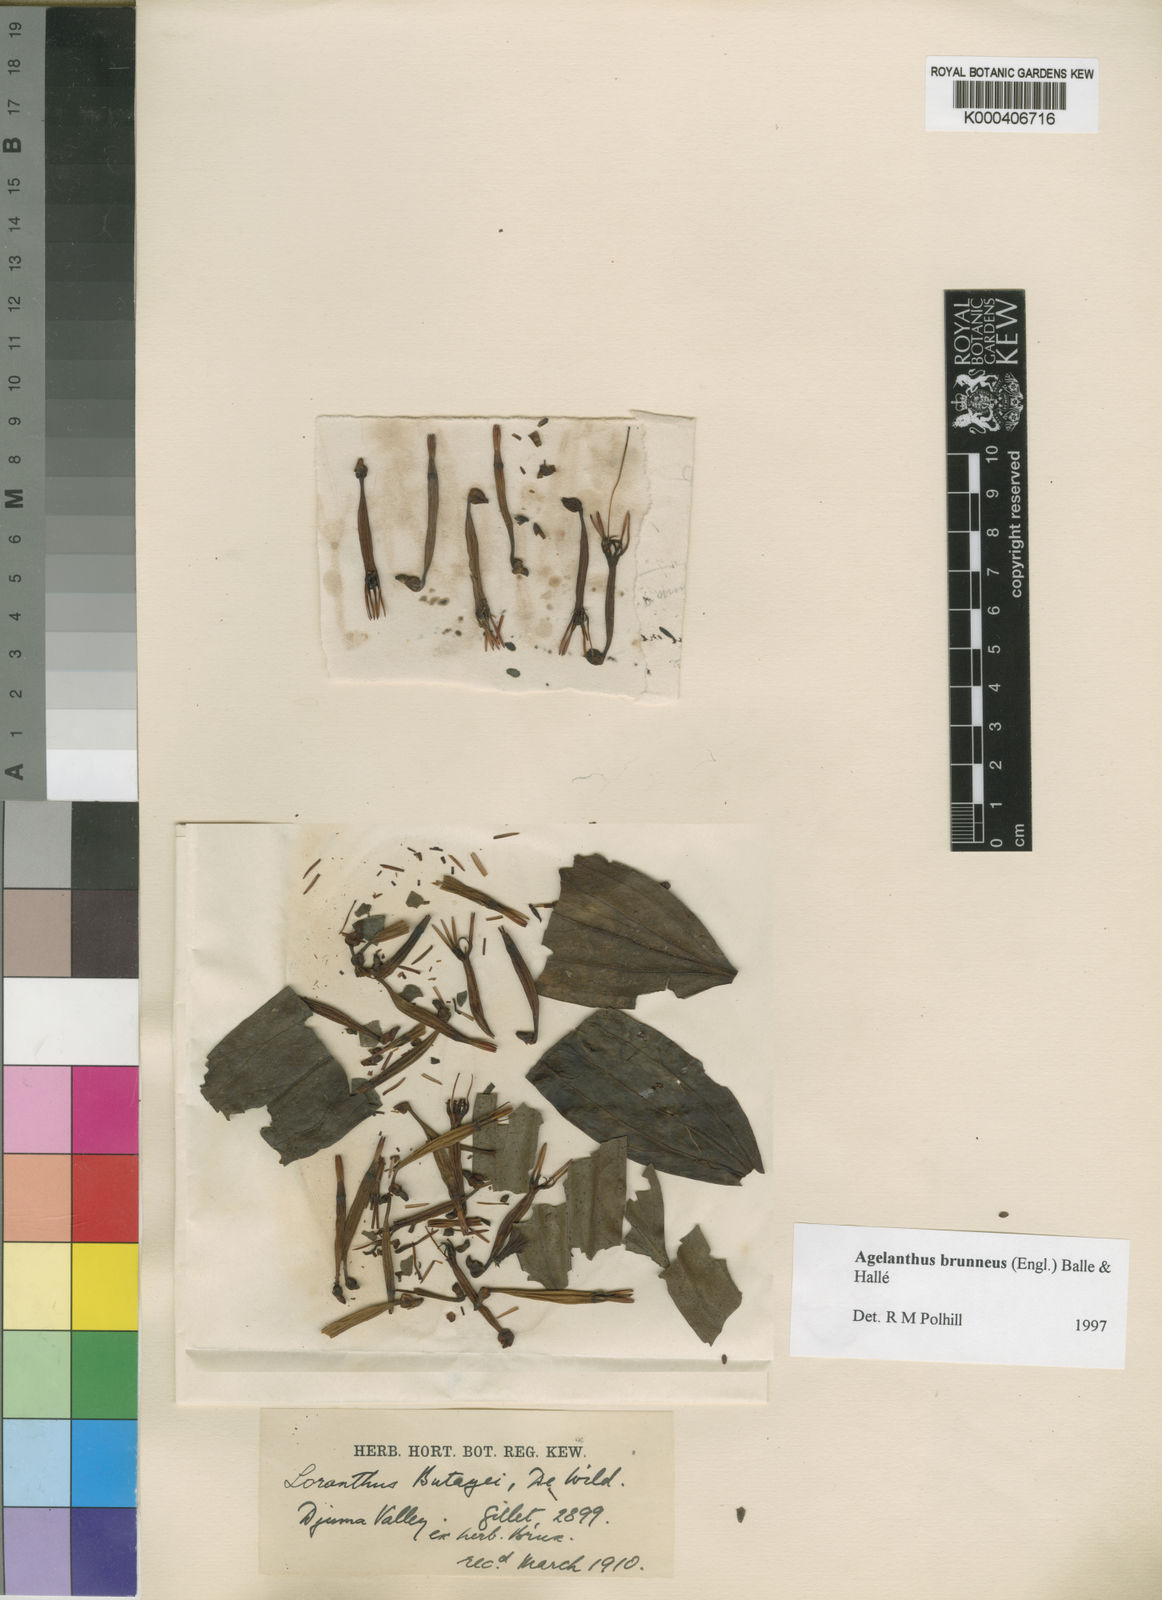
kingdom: Plantae
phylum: Tracheophyta
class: Magnoliopsida
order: Santalales
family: Loranthaceae
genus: Agelanthus
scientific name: Agelanthus
